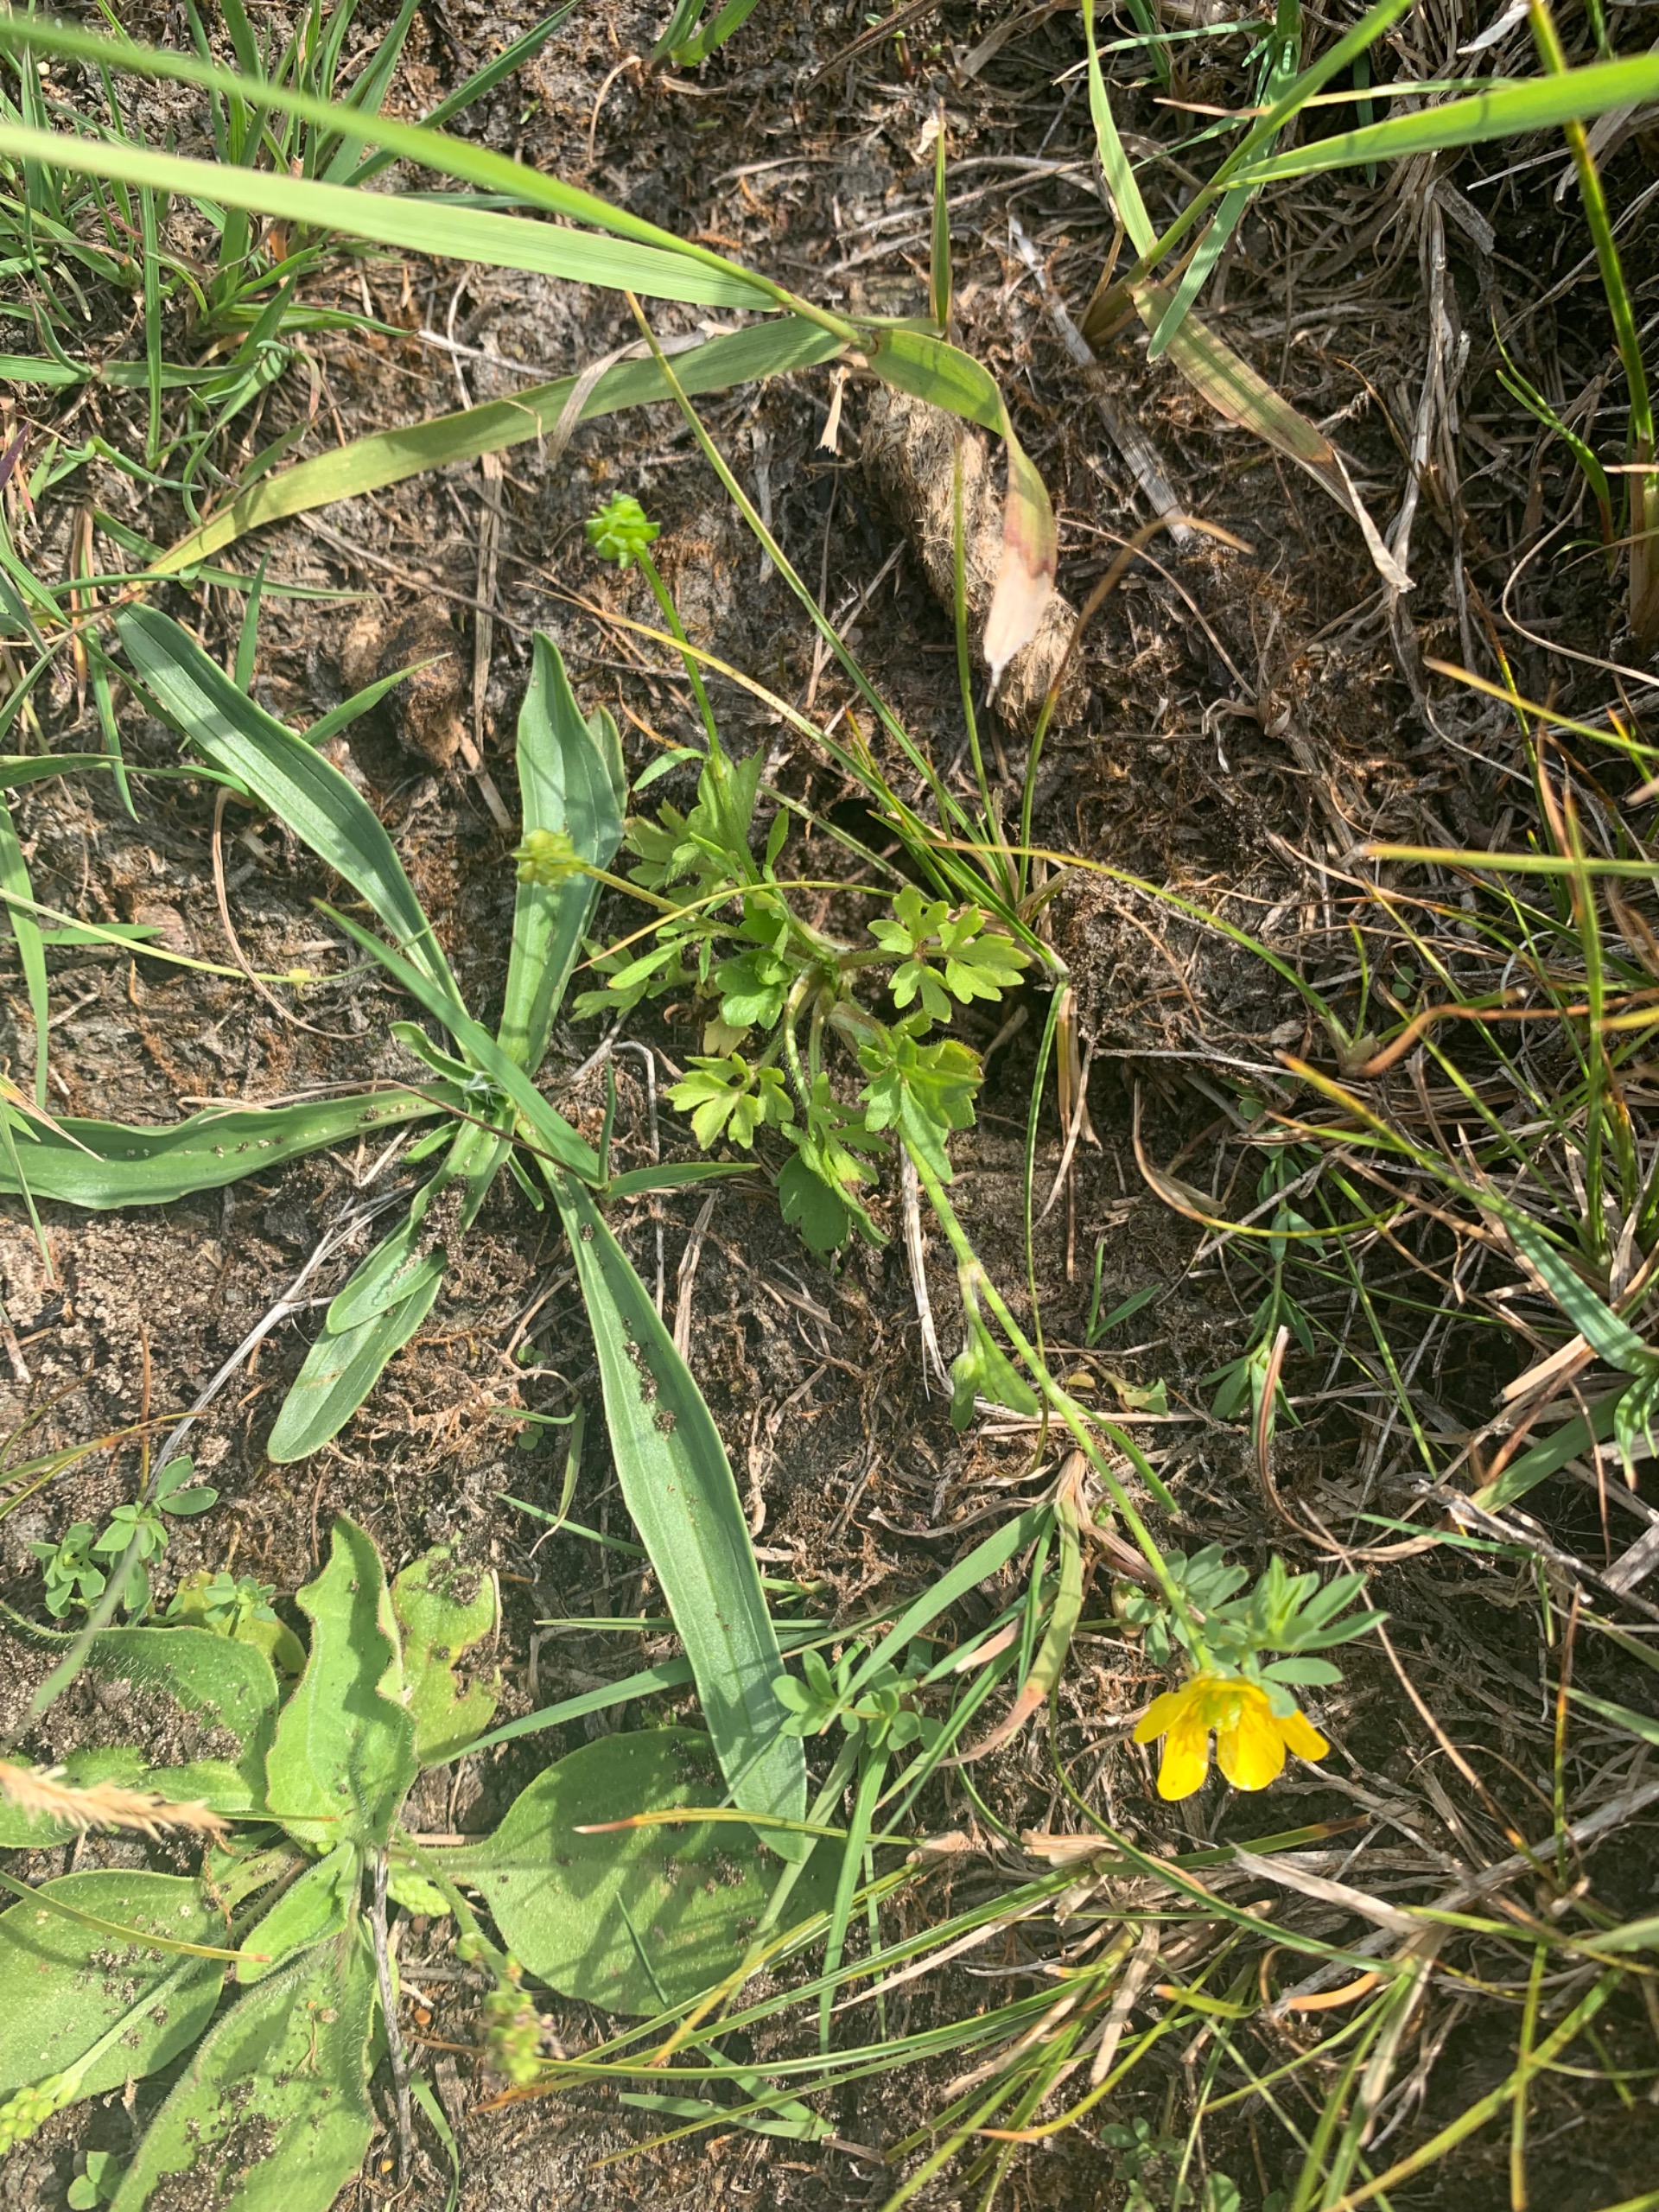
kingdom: Plantae
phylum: Tracheophyta
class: Magnoliopsida
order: Ranunculales
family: Ranunculaceae
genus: Ranunculus
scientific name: Ranunculus sardous
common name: Stivhåret ranunkel
